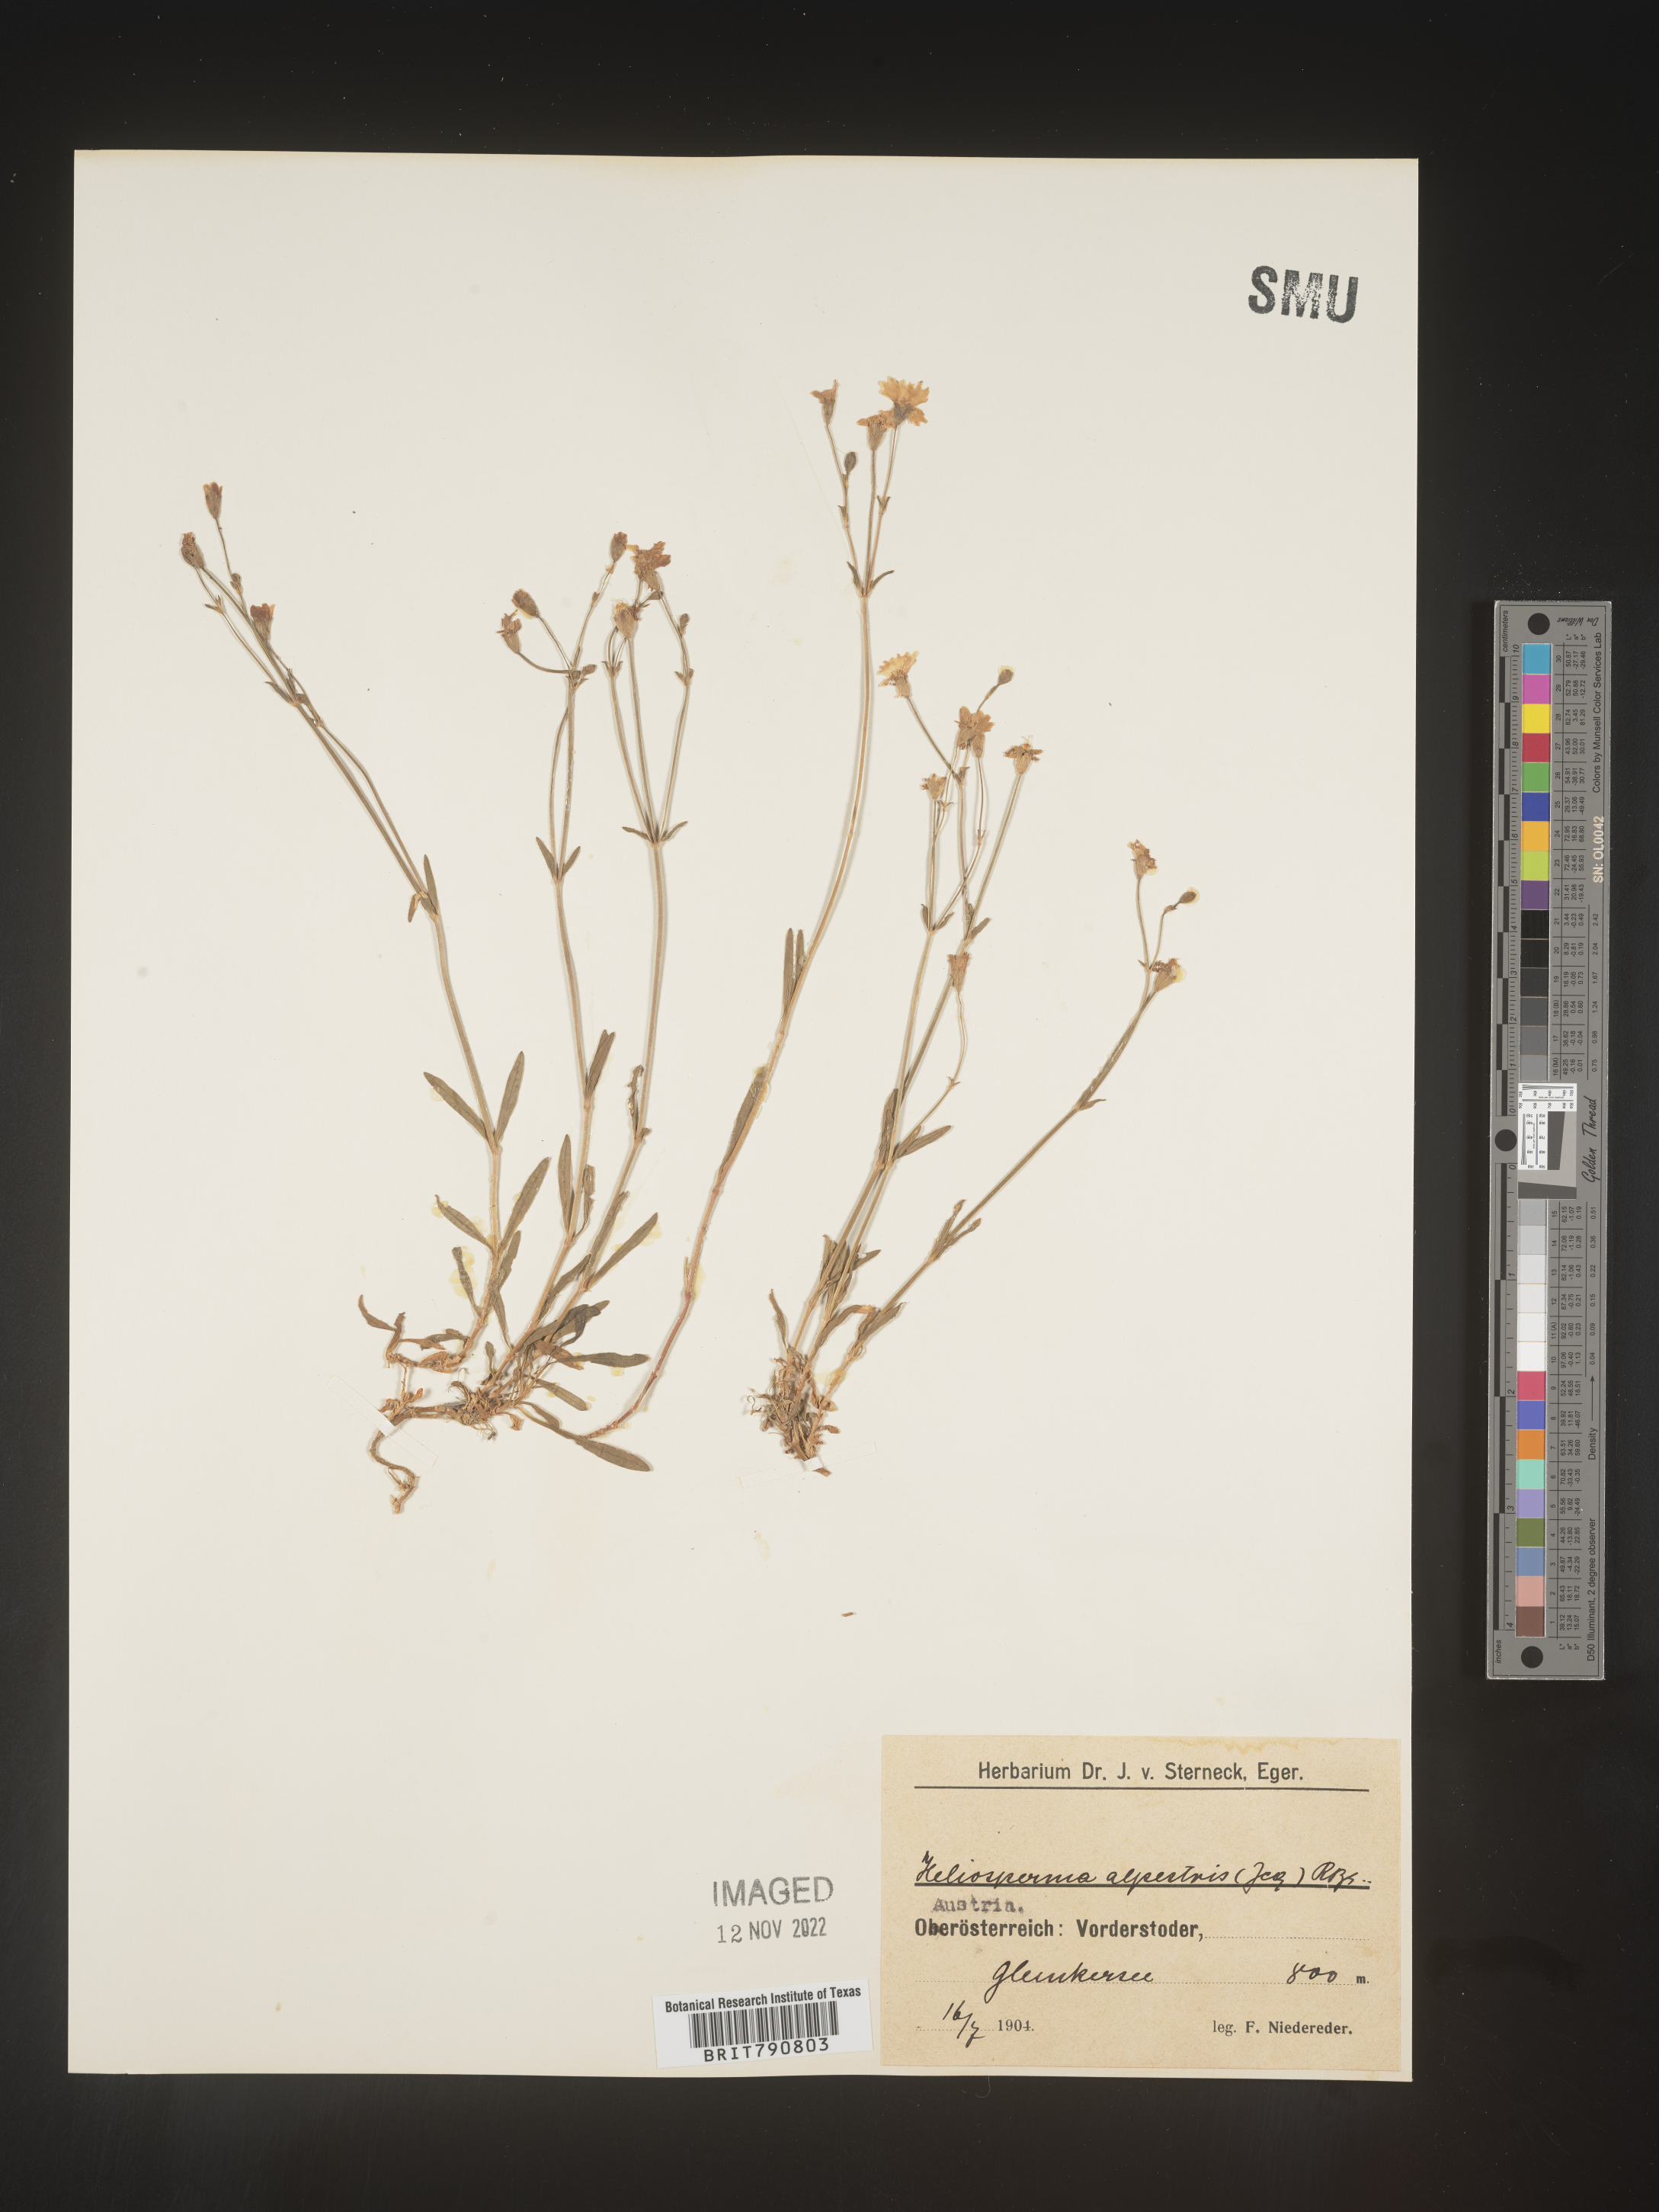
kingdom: Plantae
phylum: Tracheophyta
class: Magnoliopsida
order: Caryophyllales
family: Caryophyllaceae
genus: Heliosperma
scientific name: Heliosperma
